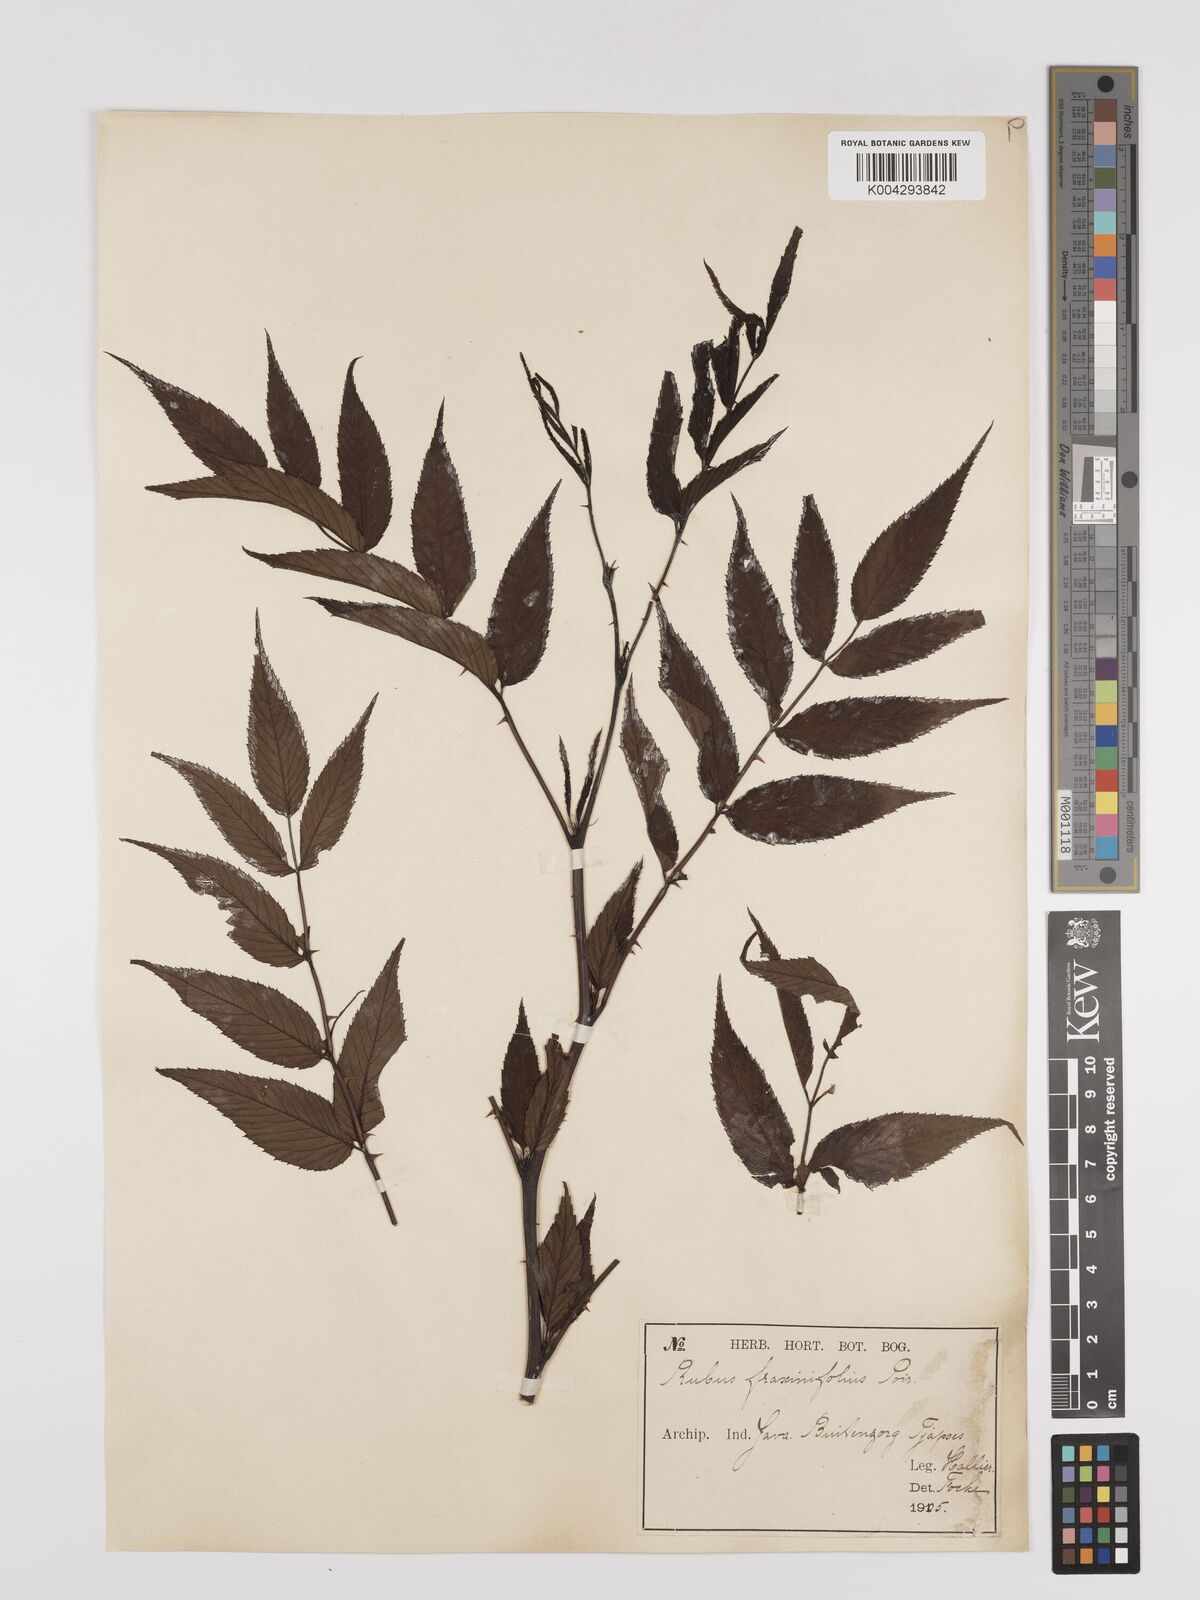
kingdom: Plantae
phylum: Tracheophyta
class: Magnoliopsida
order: Rosales
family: Rosaceae
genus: Rubus
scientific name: Rubus fraxinifolius
